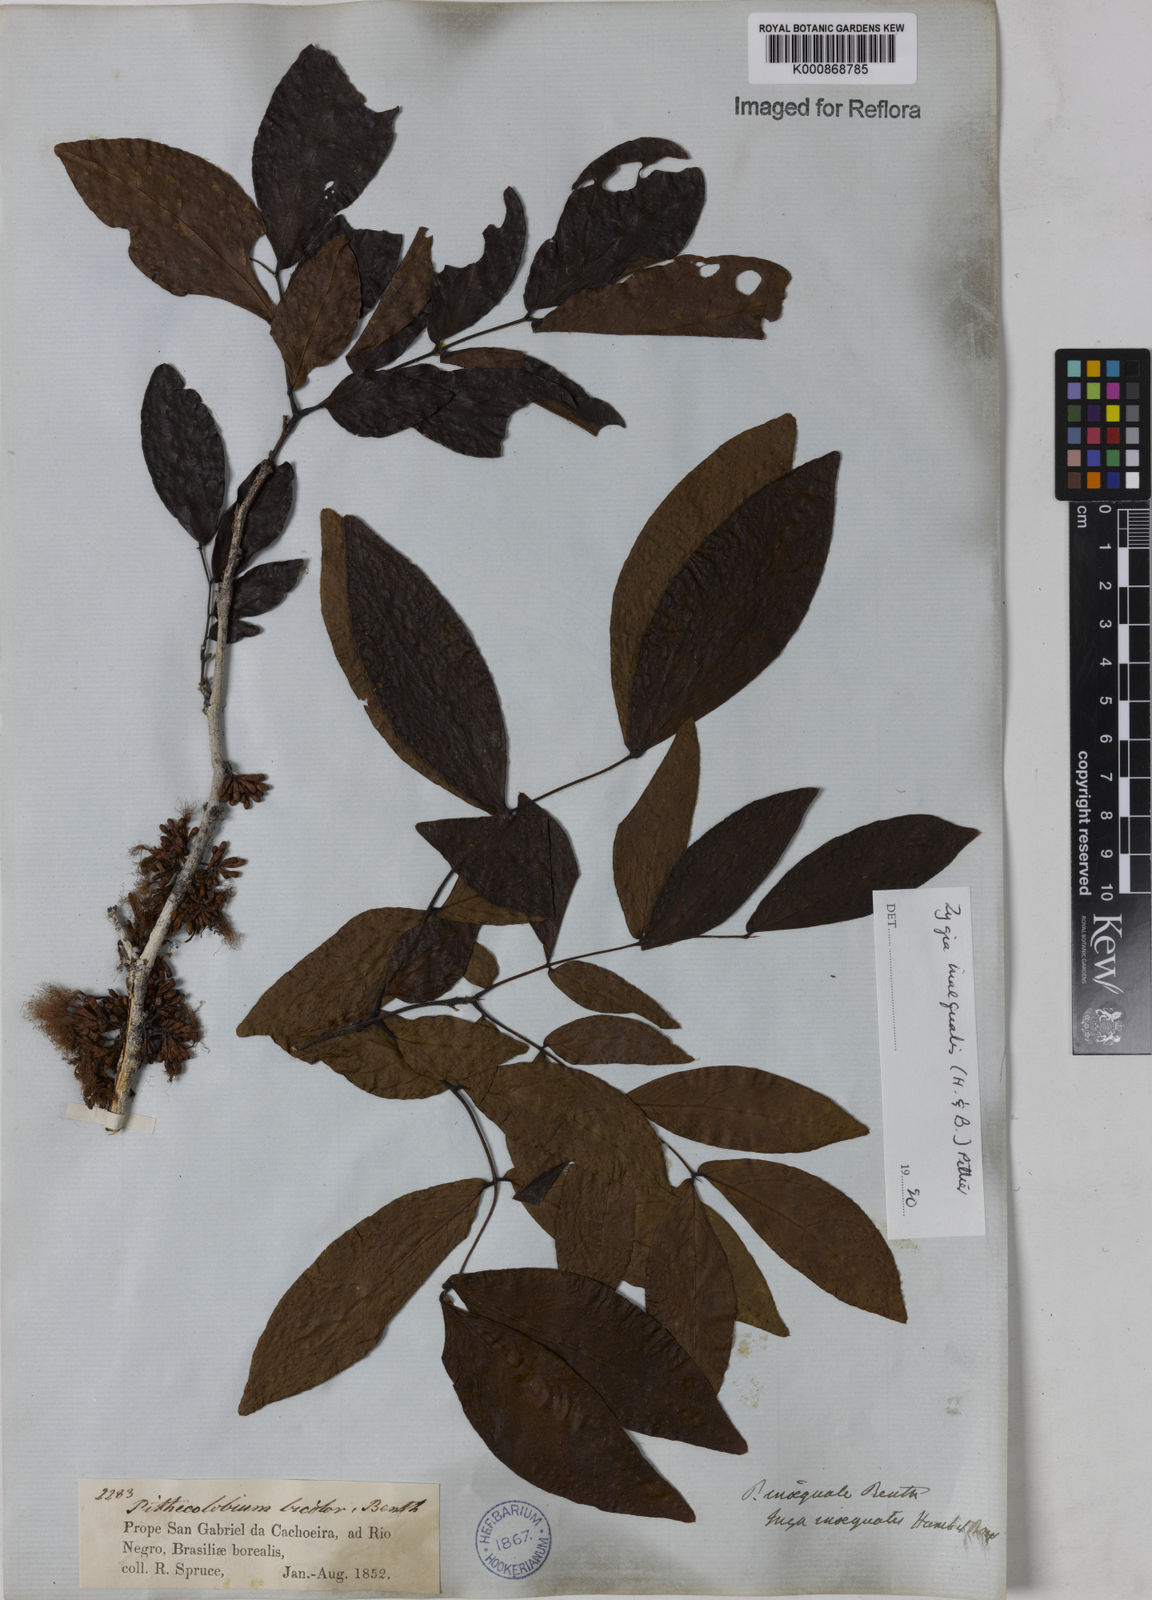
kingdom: Plantae
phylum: Tracheophyta
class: Magnoliopsida
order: Fabales
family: Fabaceae
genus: Zygia
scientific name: Zygia inaequalis
